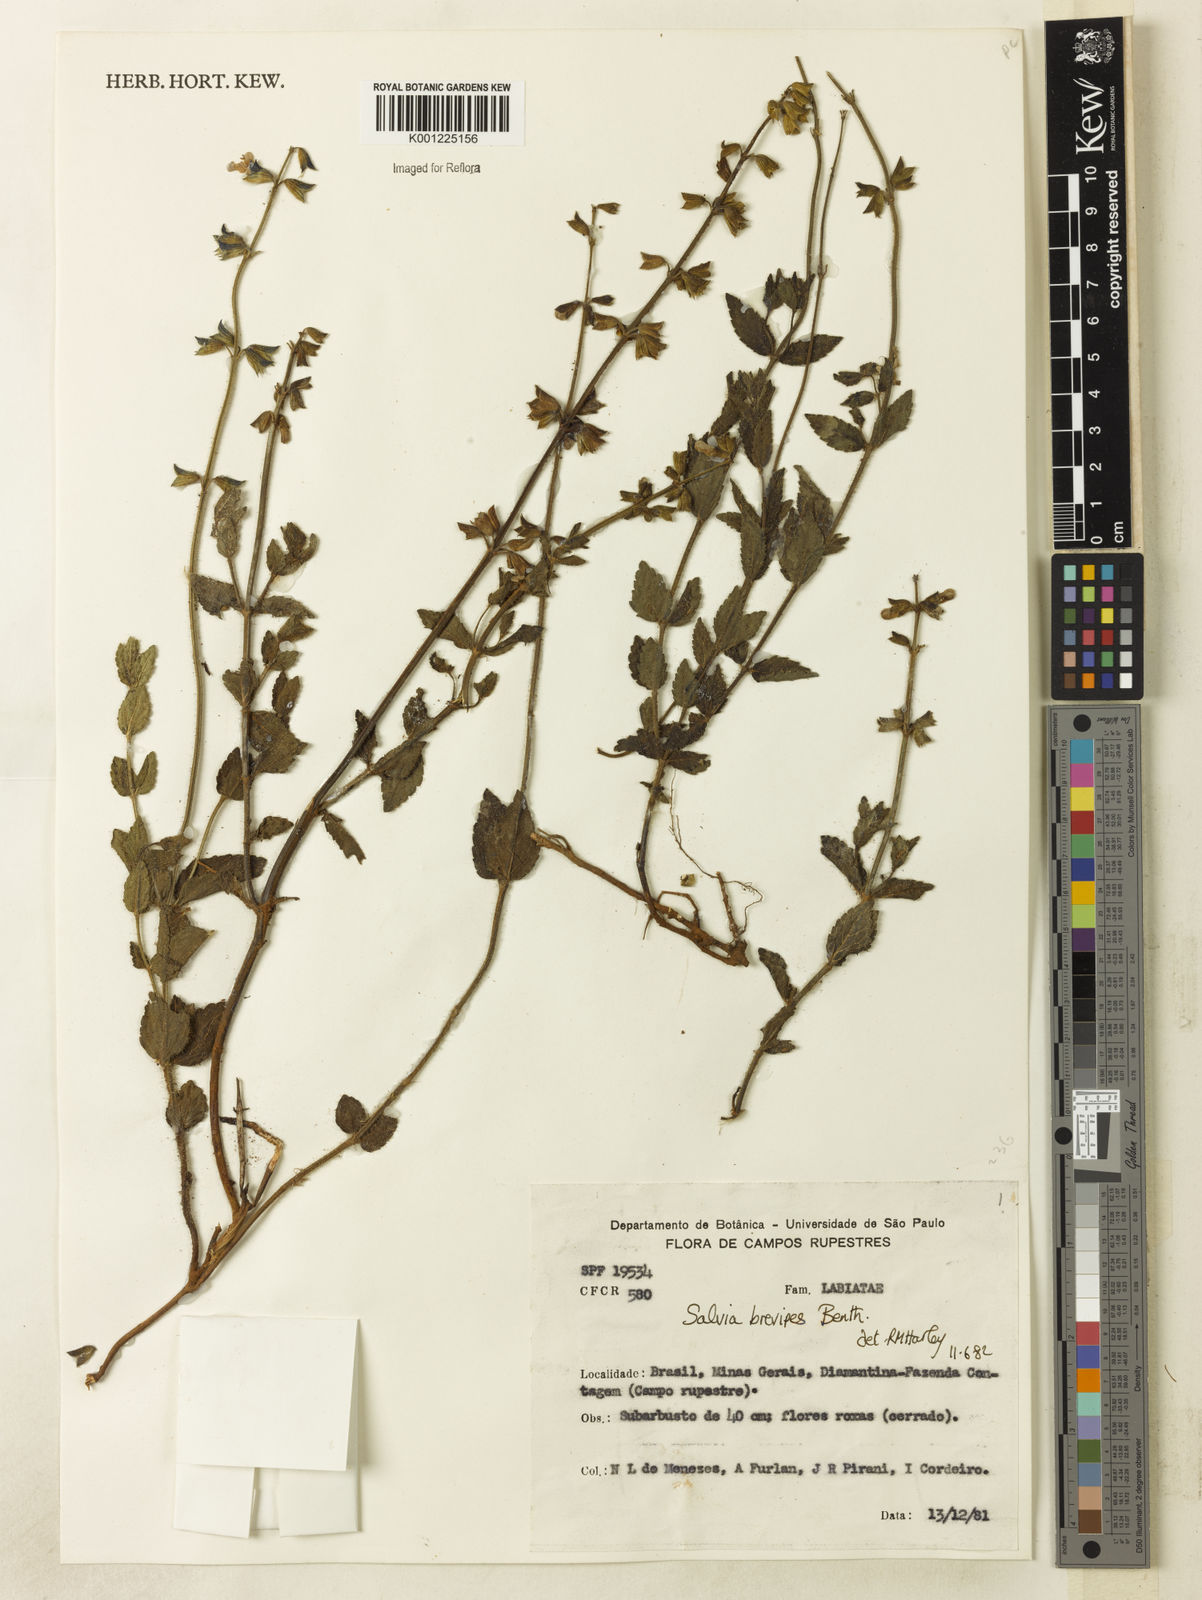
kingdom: Plantae
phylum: Tracheophyta
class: Magnoliopsida
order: Lamiales
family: Lamiaceae
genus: Salvia
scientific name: Salvia brevipes
